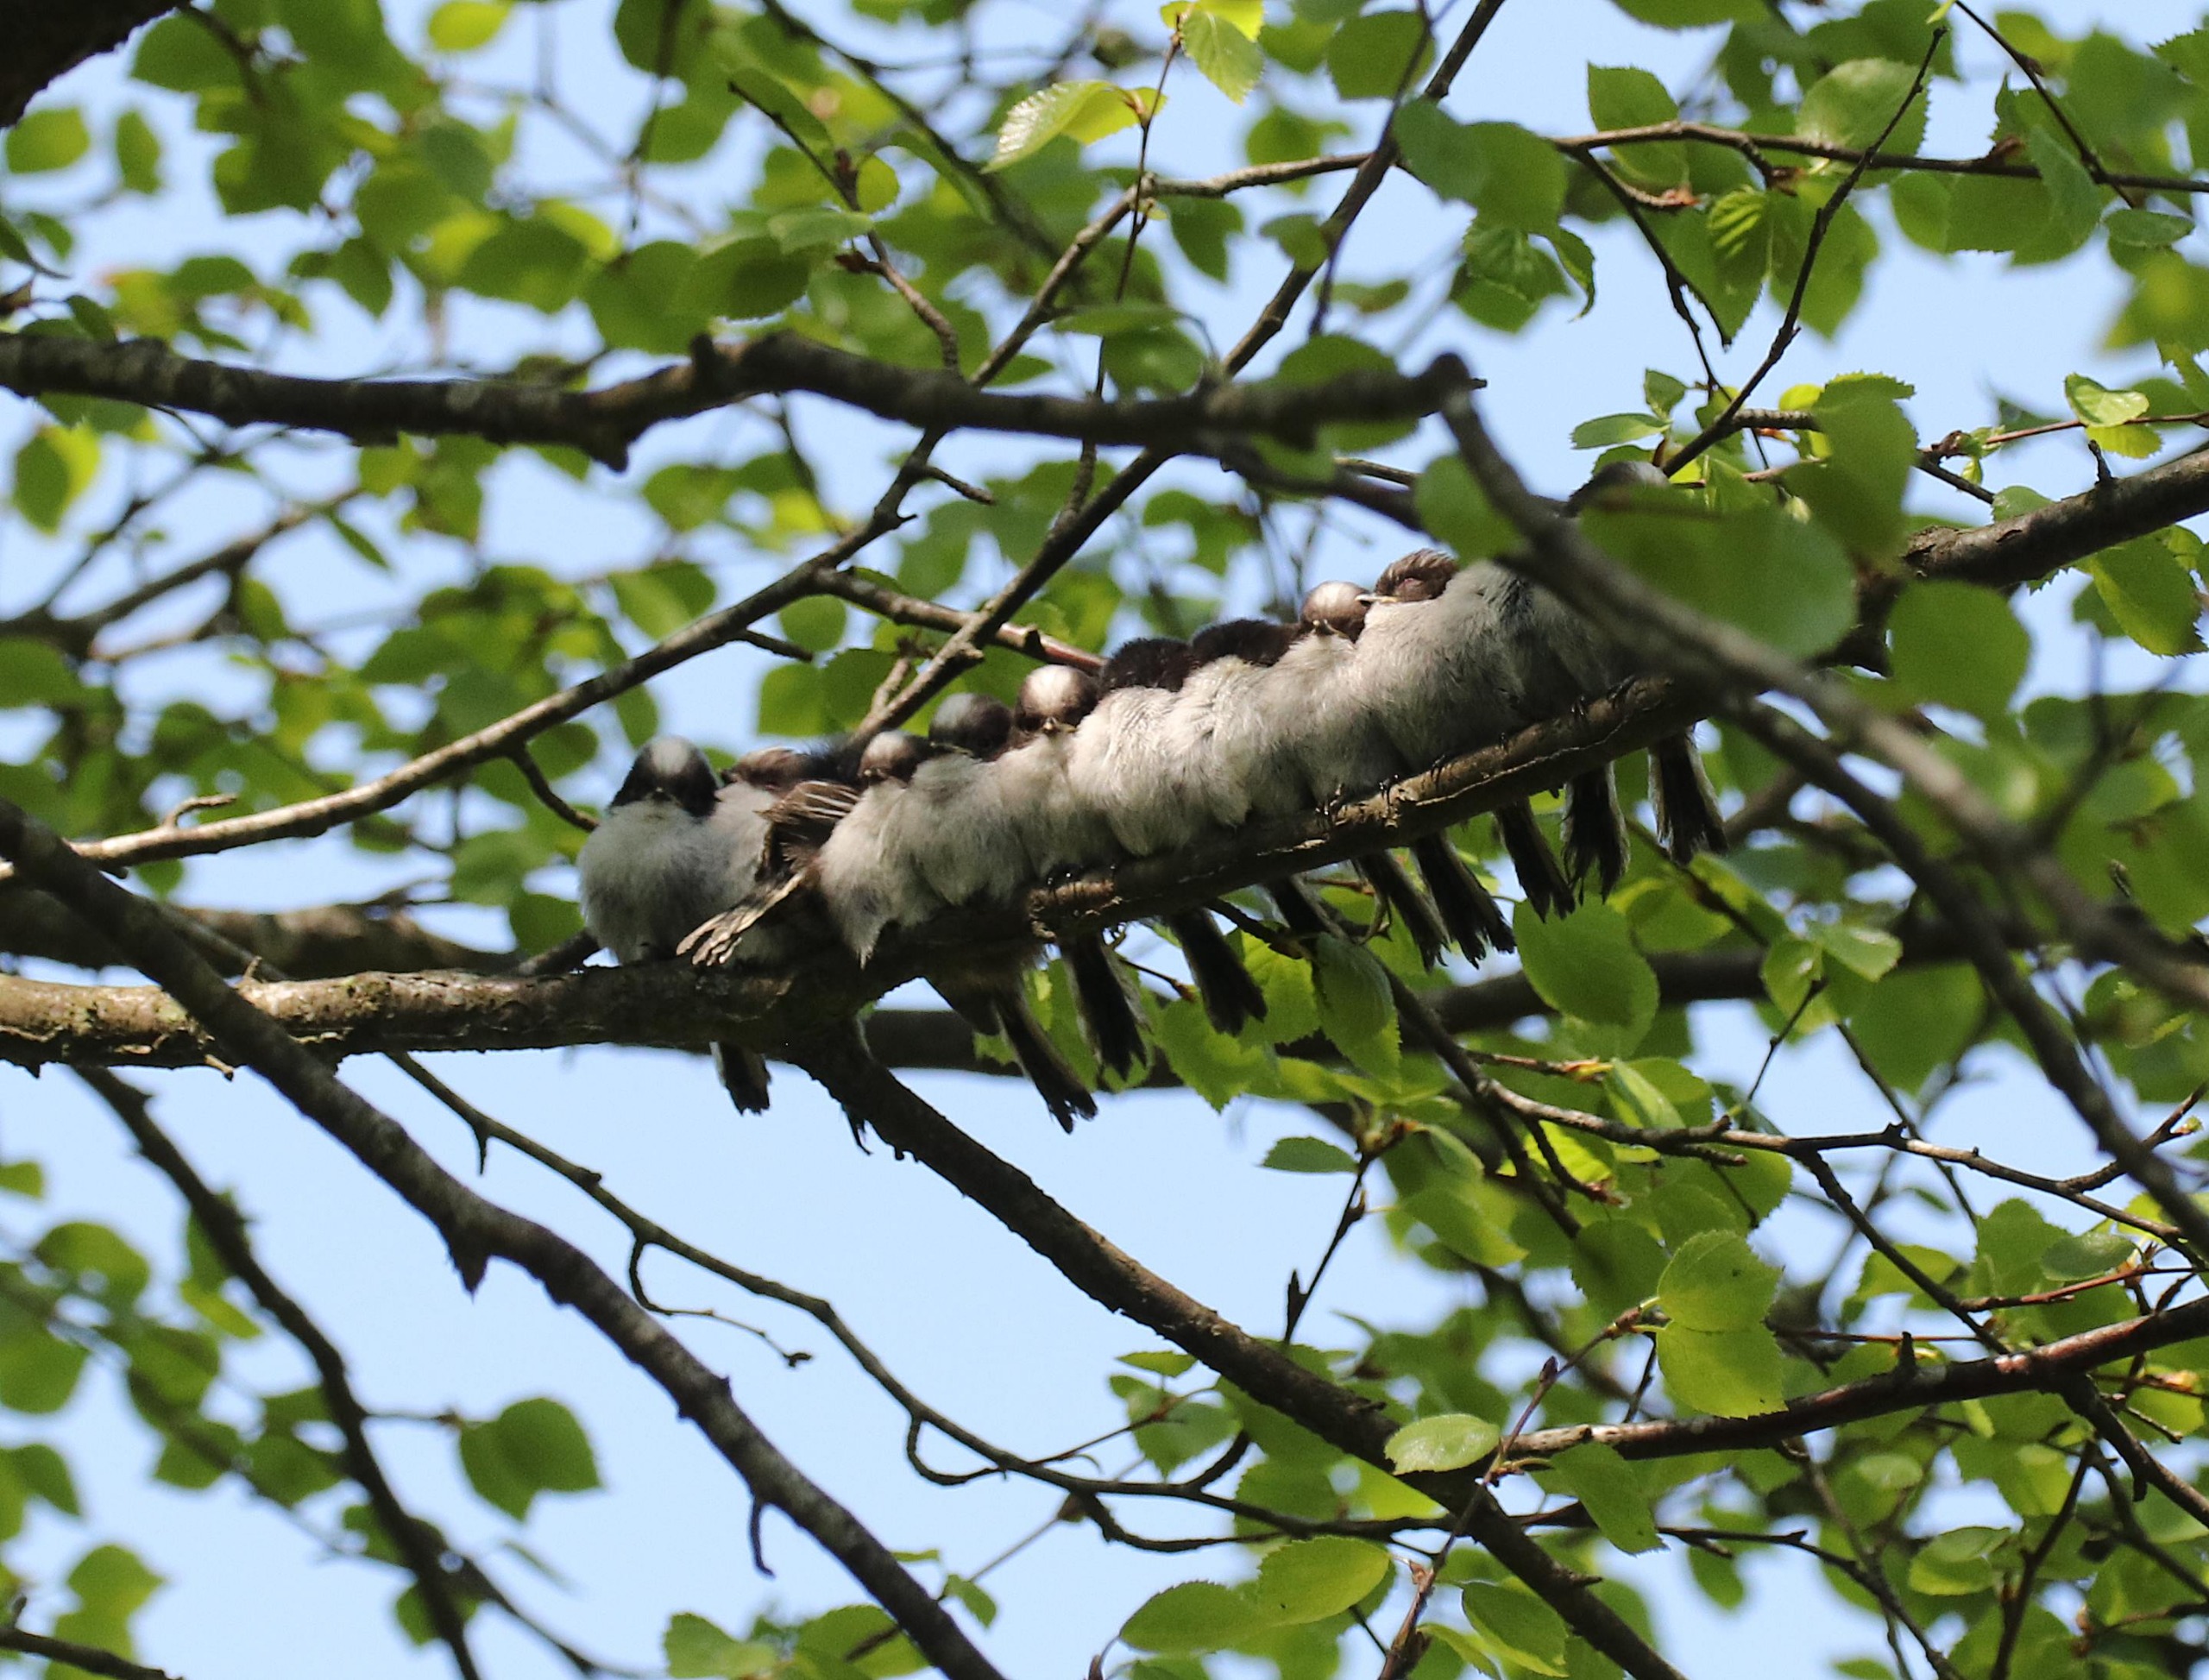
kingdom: Animalia
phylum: Chordata
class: Aves
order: Passeriformes
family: Aegithalidae
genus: Aegithalos
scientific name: Aegithalos caudatus
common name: Halemejse
